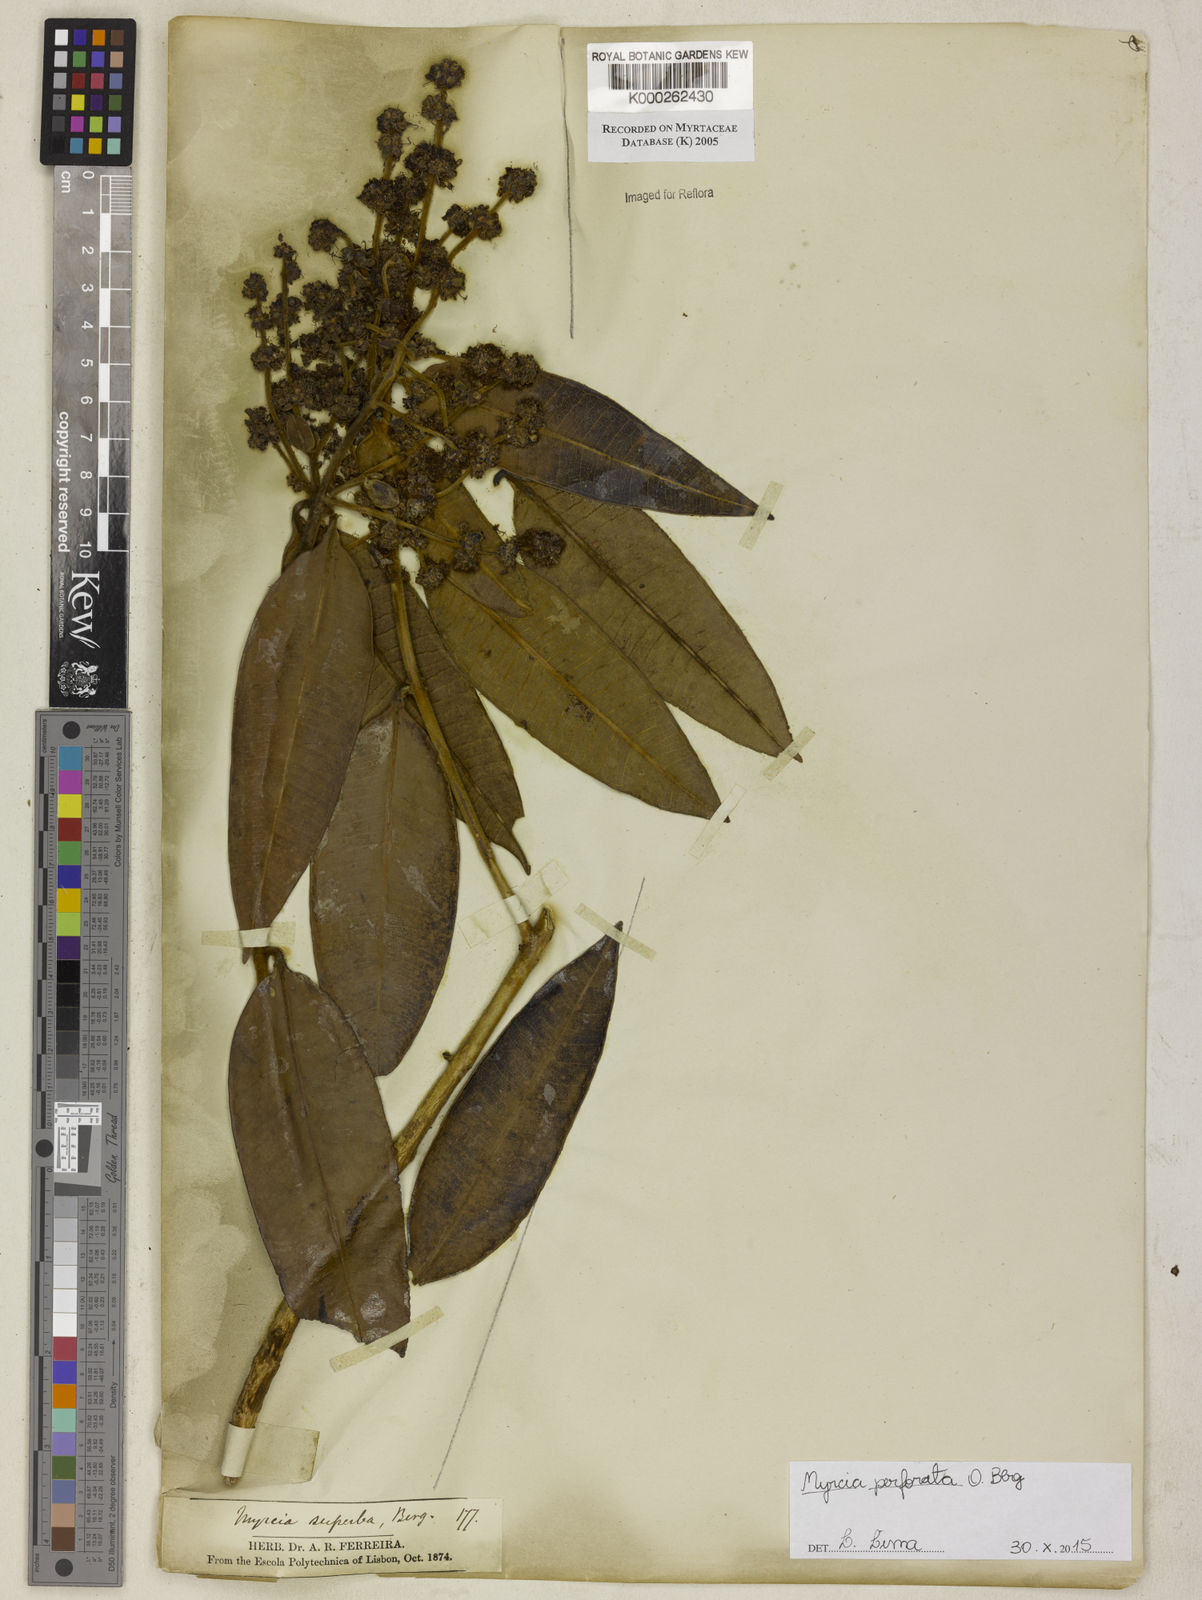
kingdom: Plantae
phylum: Tracheophyta
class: Magnoliopsida
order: Myrtales
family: Myrtaceae
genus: Myrcia
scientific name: Myrcia splendens
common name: Surinam cherry
